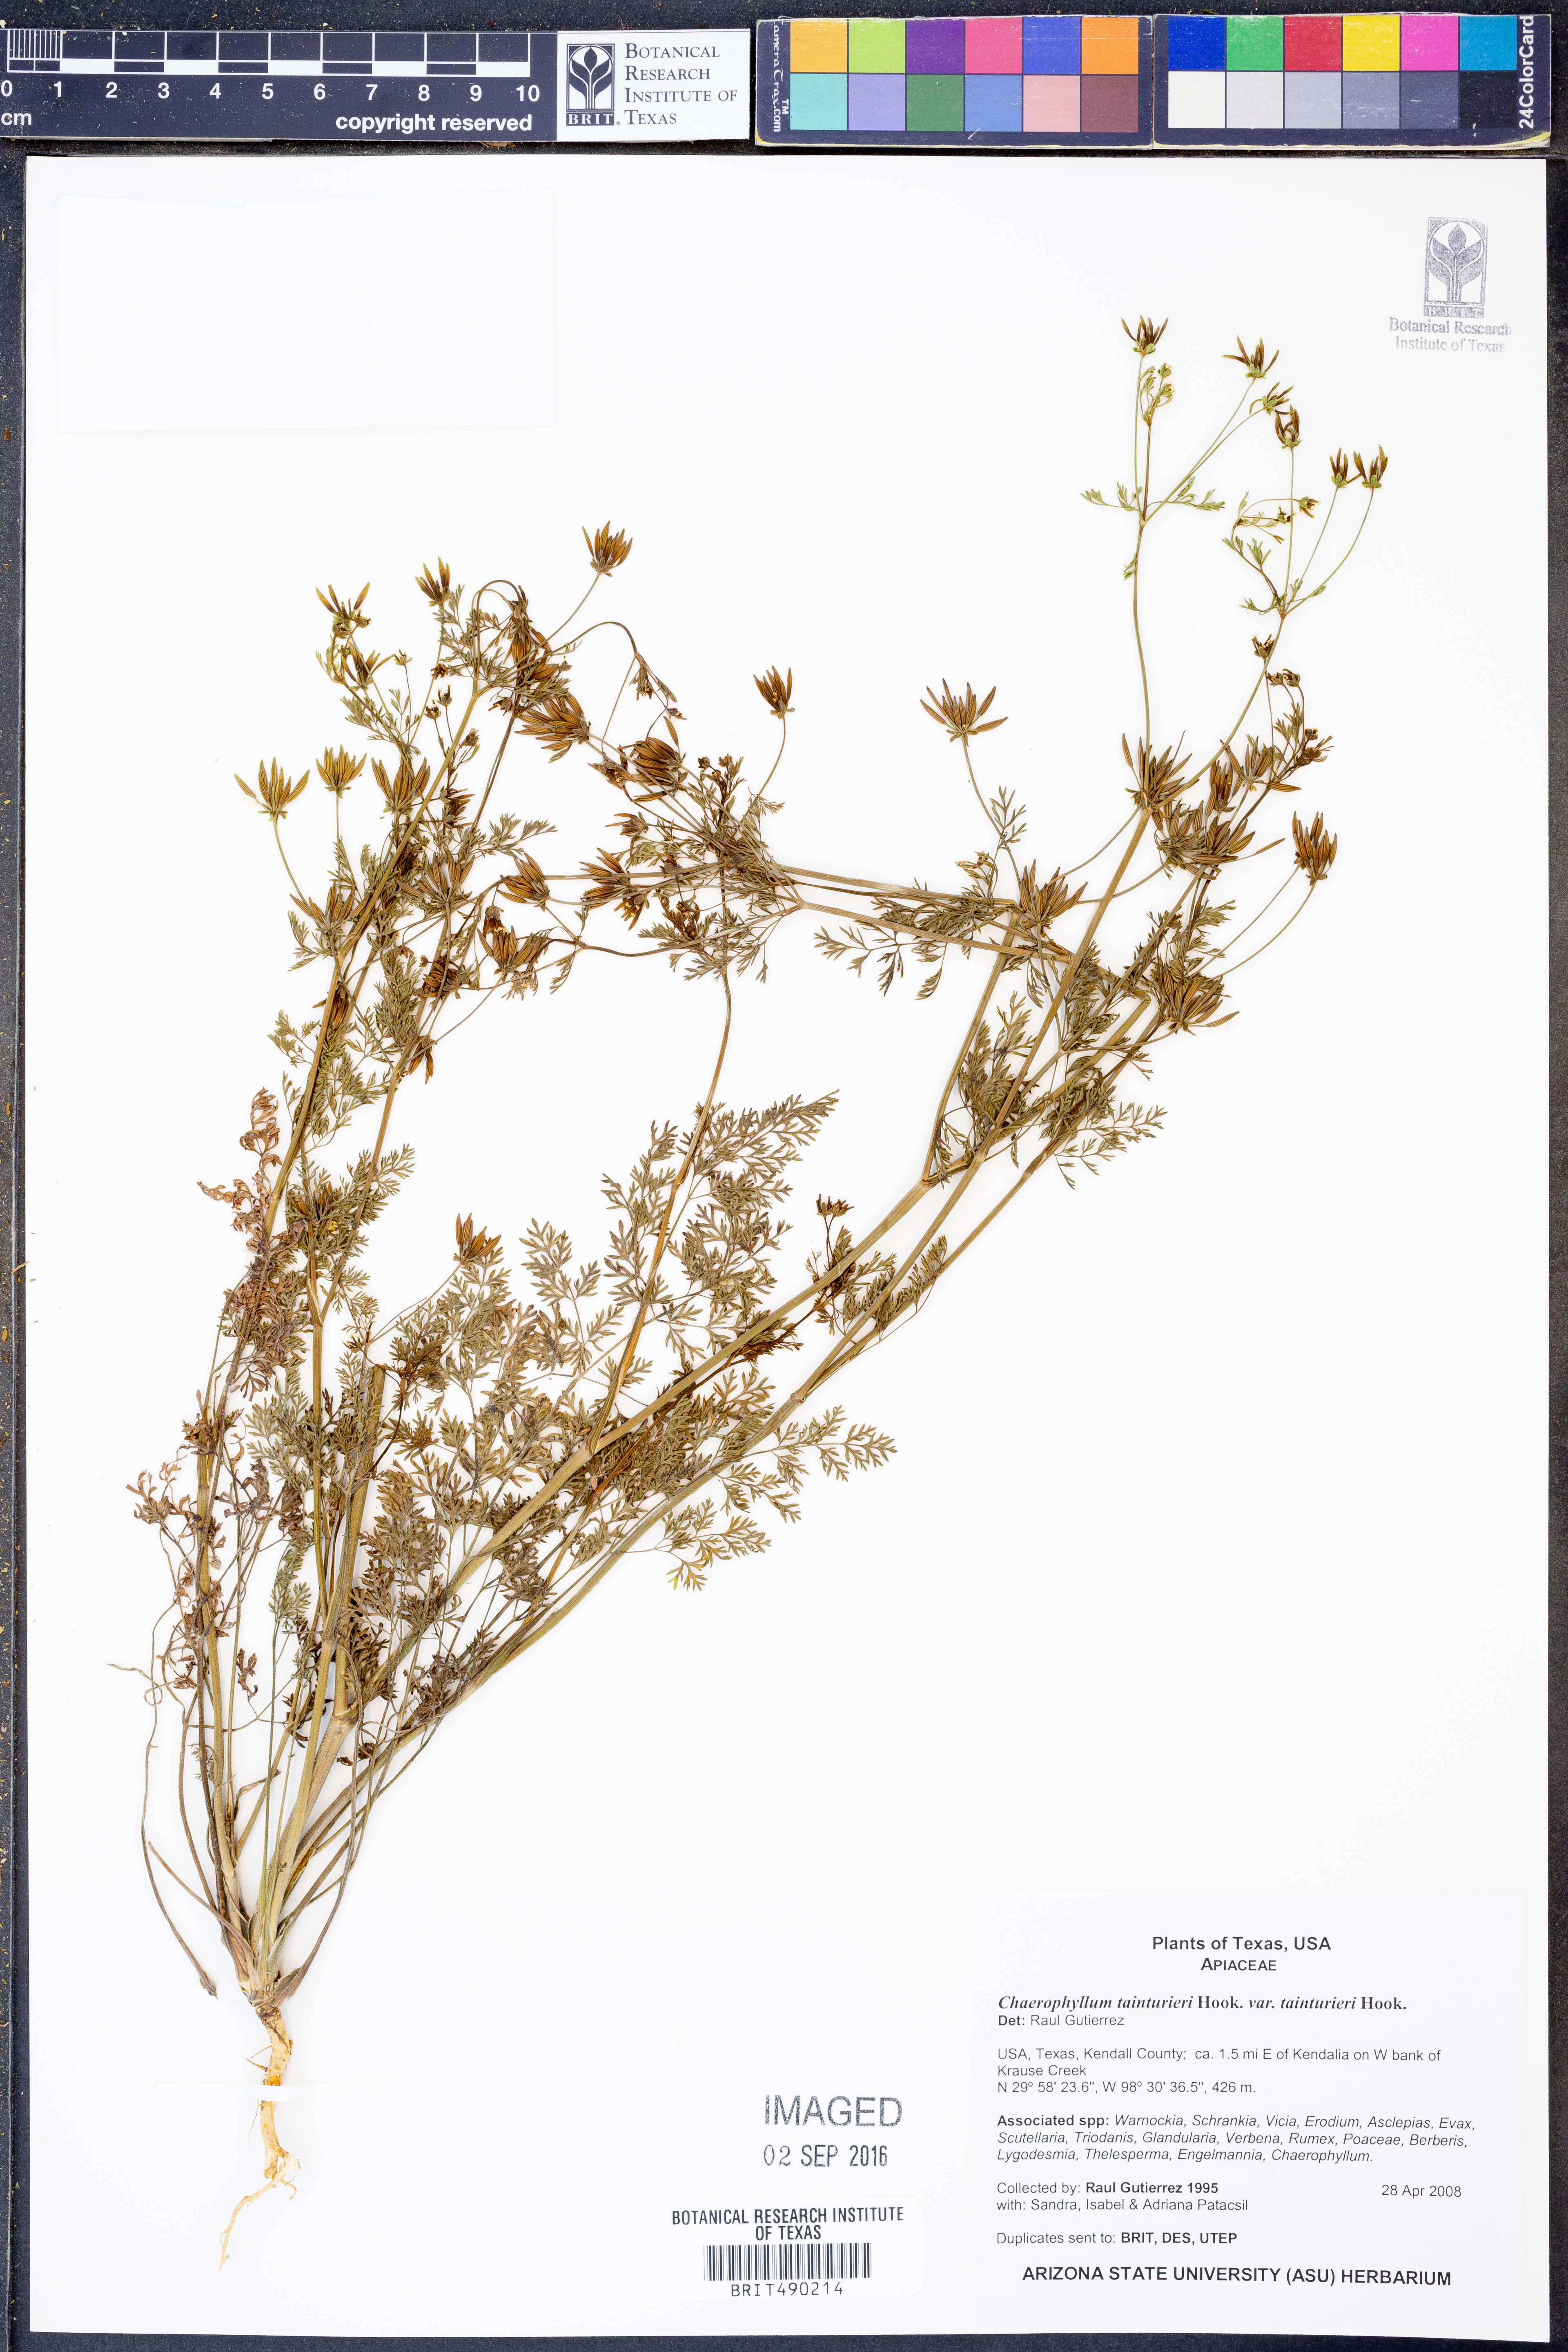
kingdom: Plantae
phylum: Tracheophyta
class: Magnoliopsida
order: Apiales
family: Apiaceae
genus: Chaerophyllum
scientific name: Chaerophyllum tainturieri
